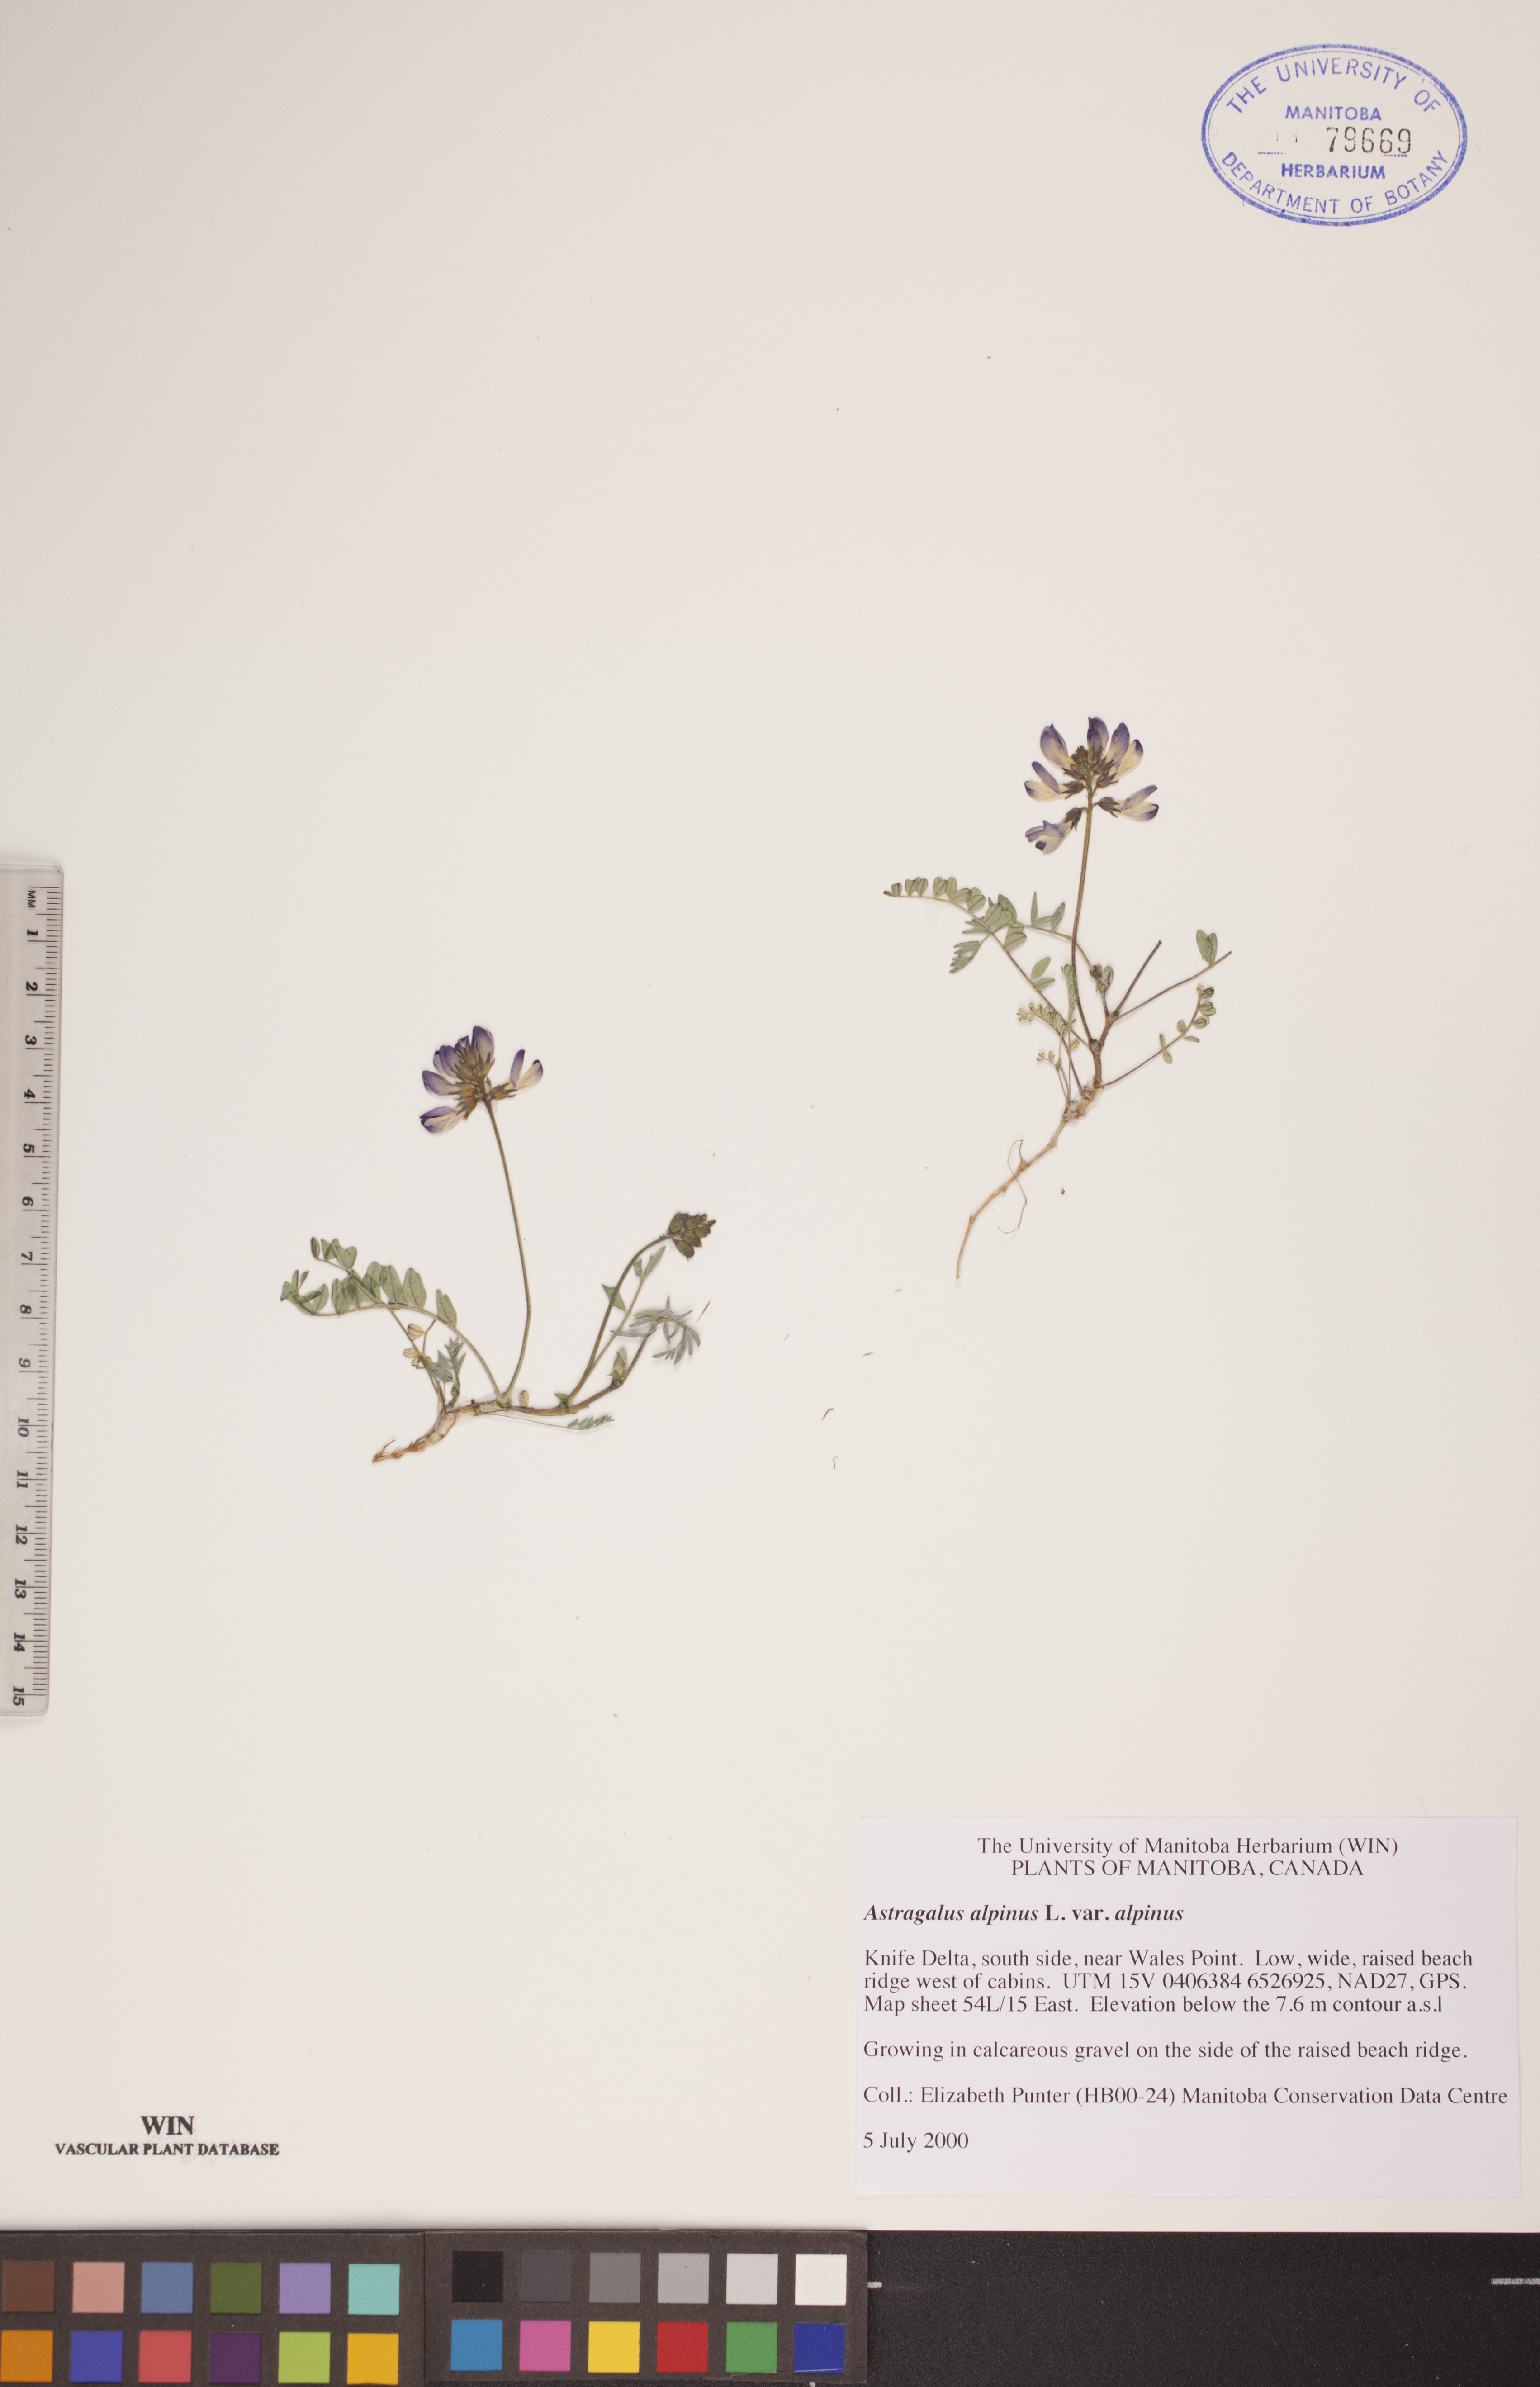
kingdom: Plantae
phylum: Tracheophyta
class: Magnoliopsida
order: Fabales
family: Fabaceae
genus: Astragalus
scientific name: Astragalus alpinus
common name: Alpine milk-vetch
